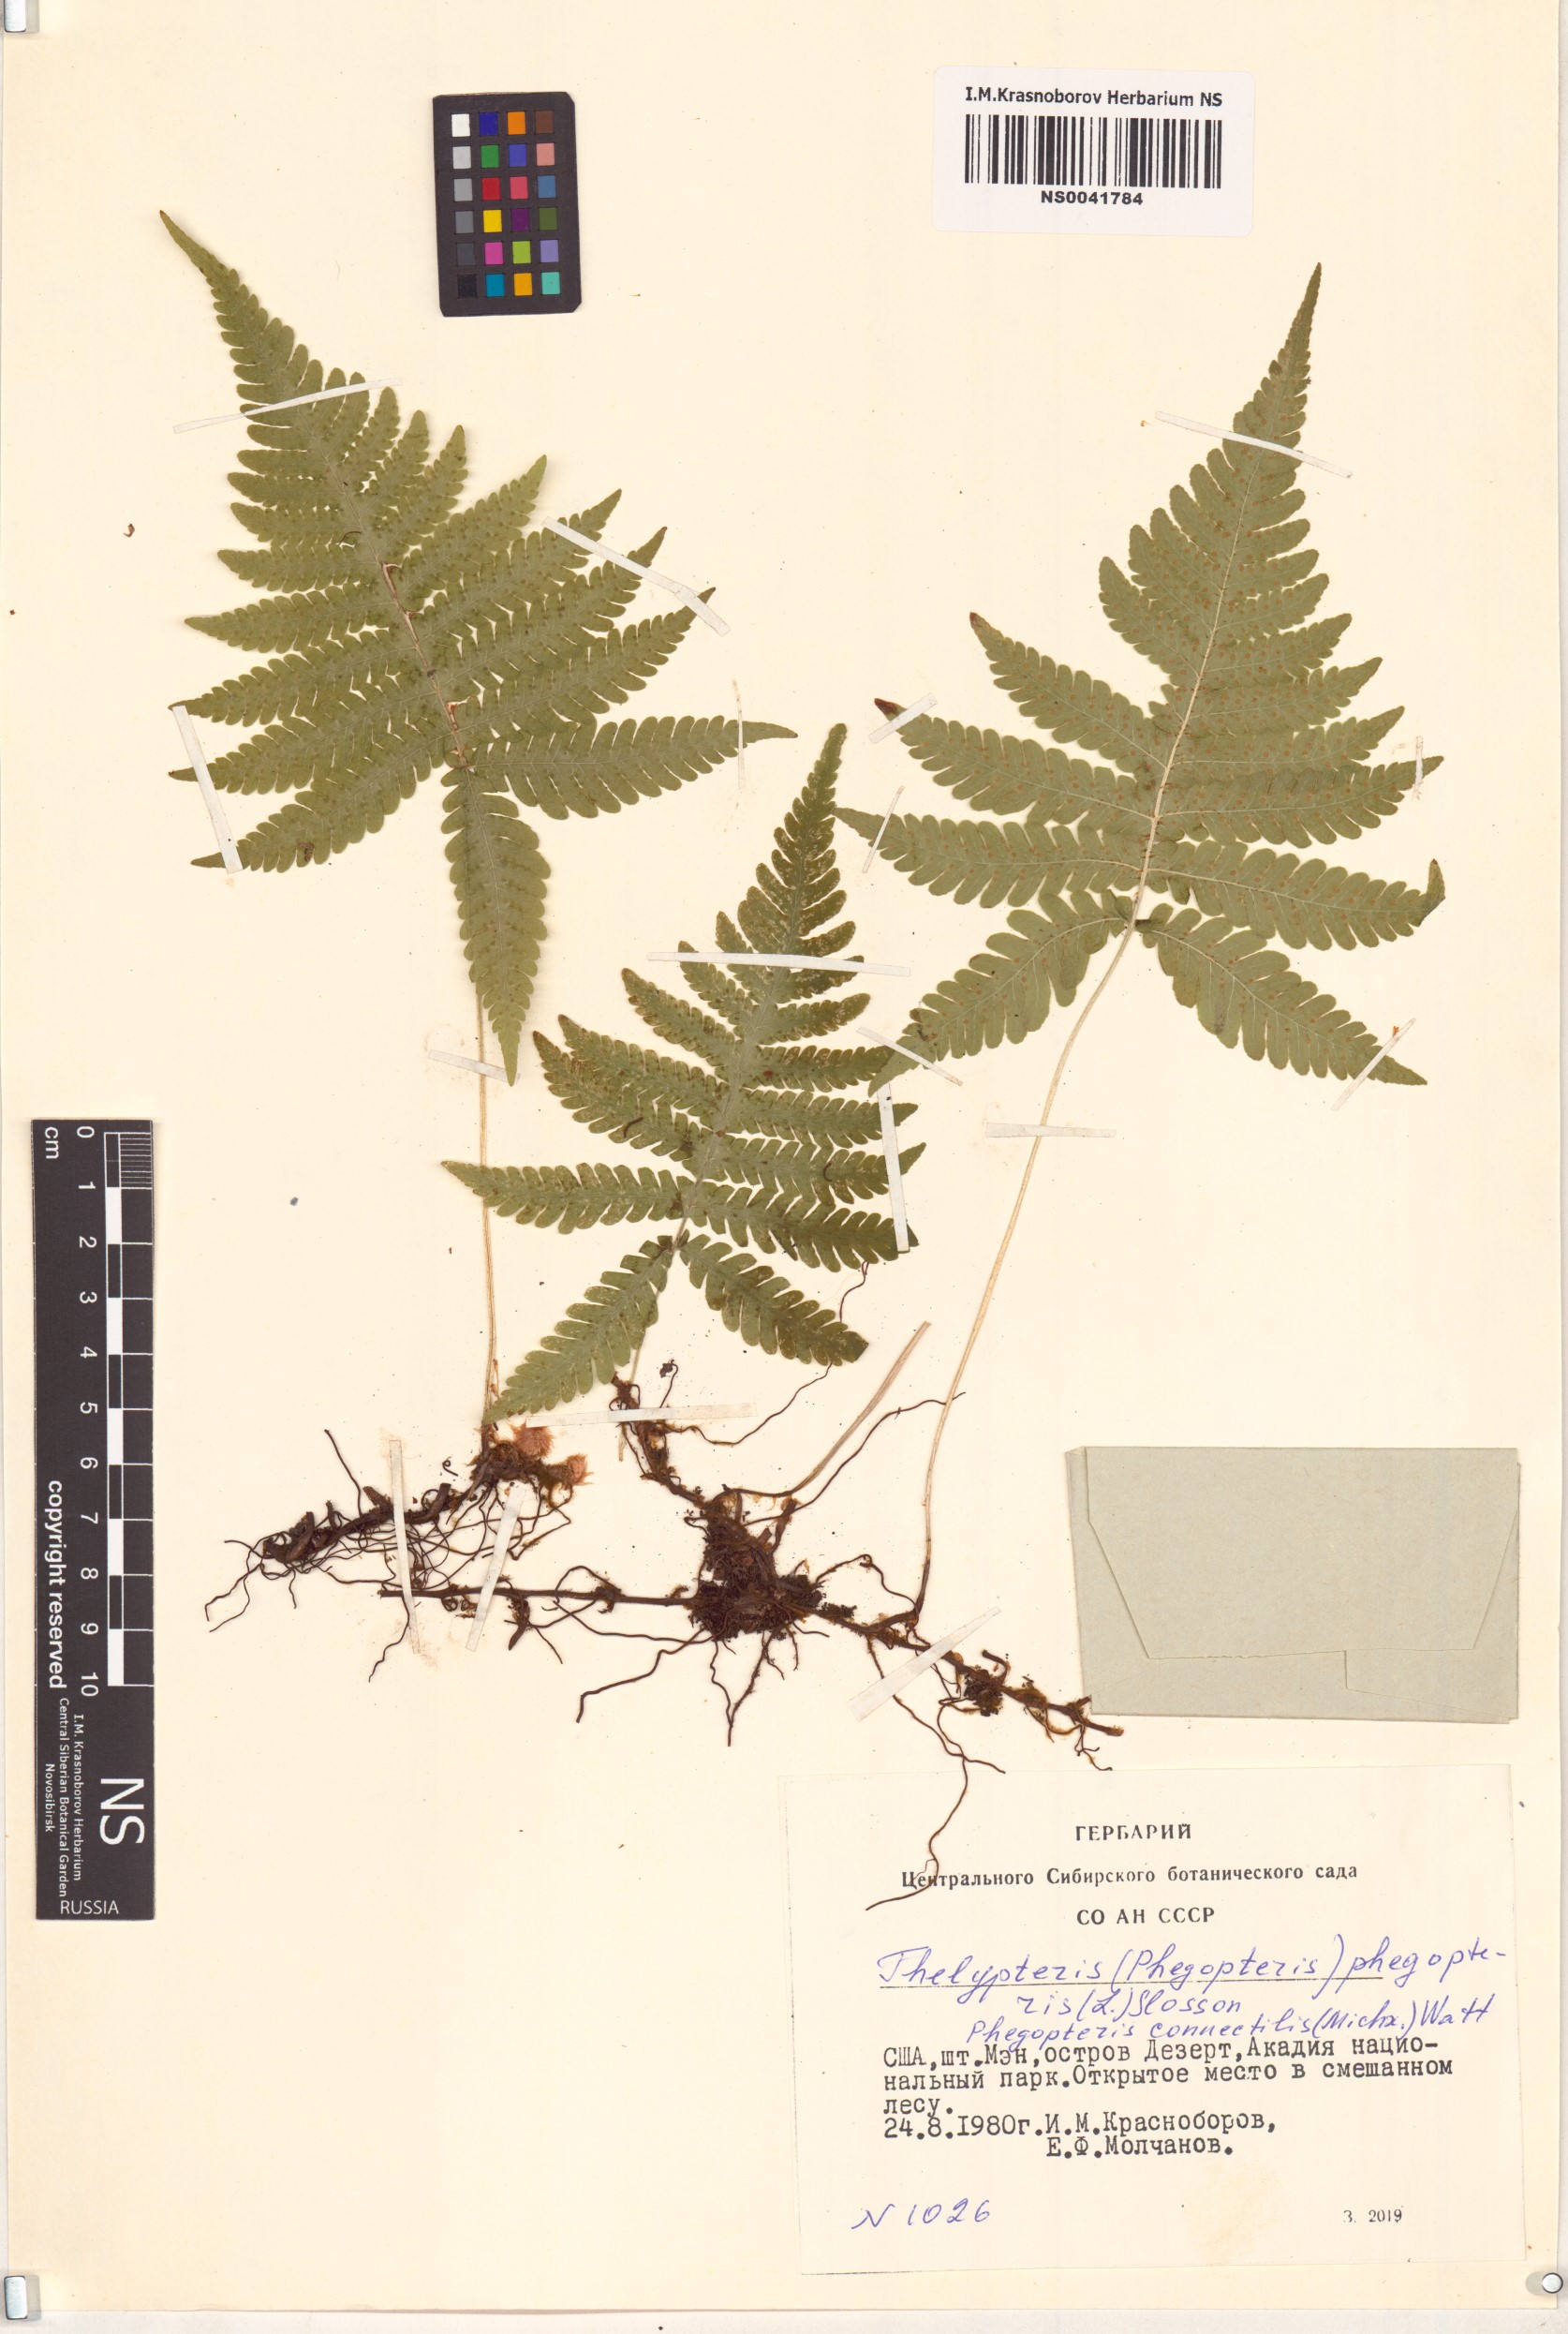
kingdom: Plantae
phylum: Tracheophyta
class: Polypodiopsida
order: Polypodiales
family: Thelypteridaceae
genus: Phegopteris
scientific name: Phegopteris connectilis
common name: Beech fern
